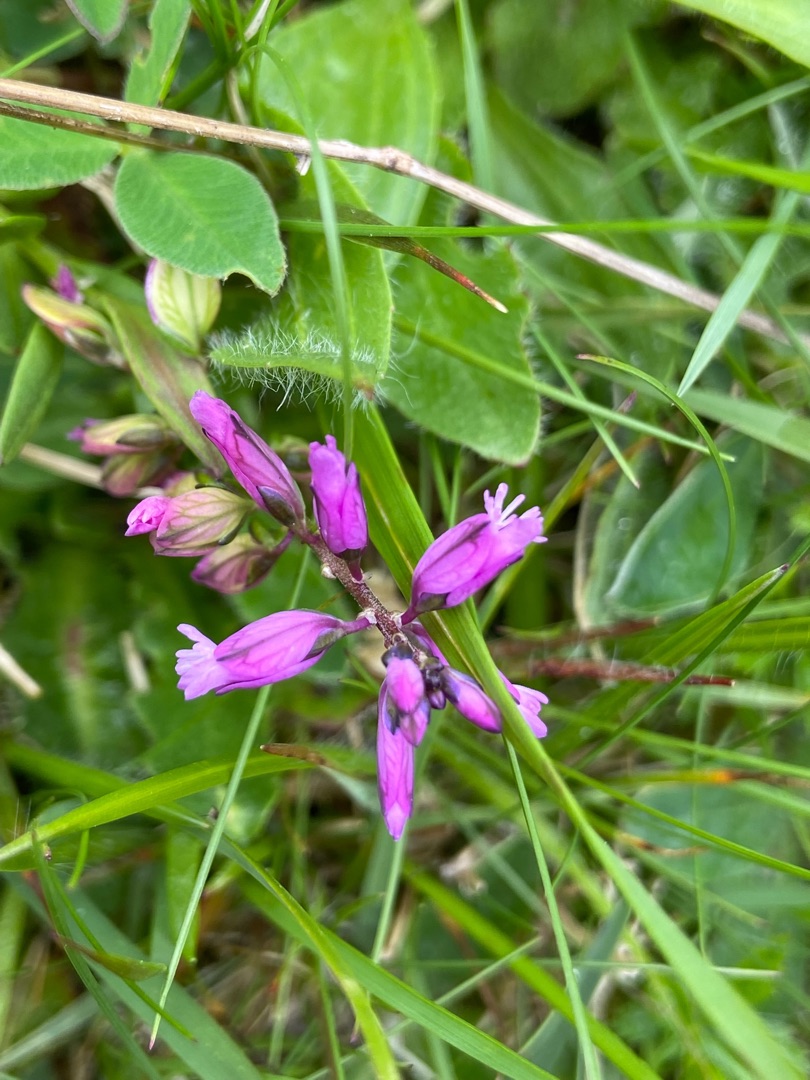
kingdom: Plantae
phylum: Tracheophyta
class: Magnoliopsida
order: Fabales
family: Polygalaceae
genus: Polygala
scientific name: Polygala vulgaris
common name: Almindelig mælkeurt
